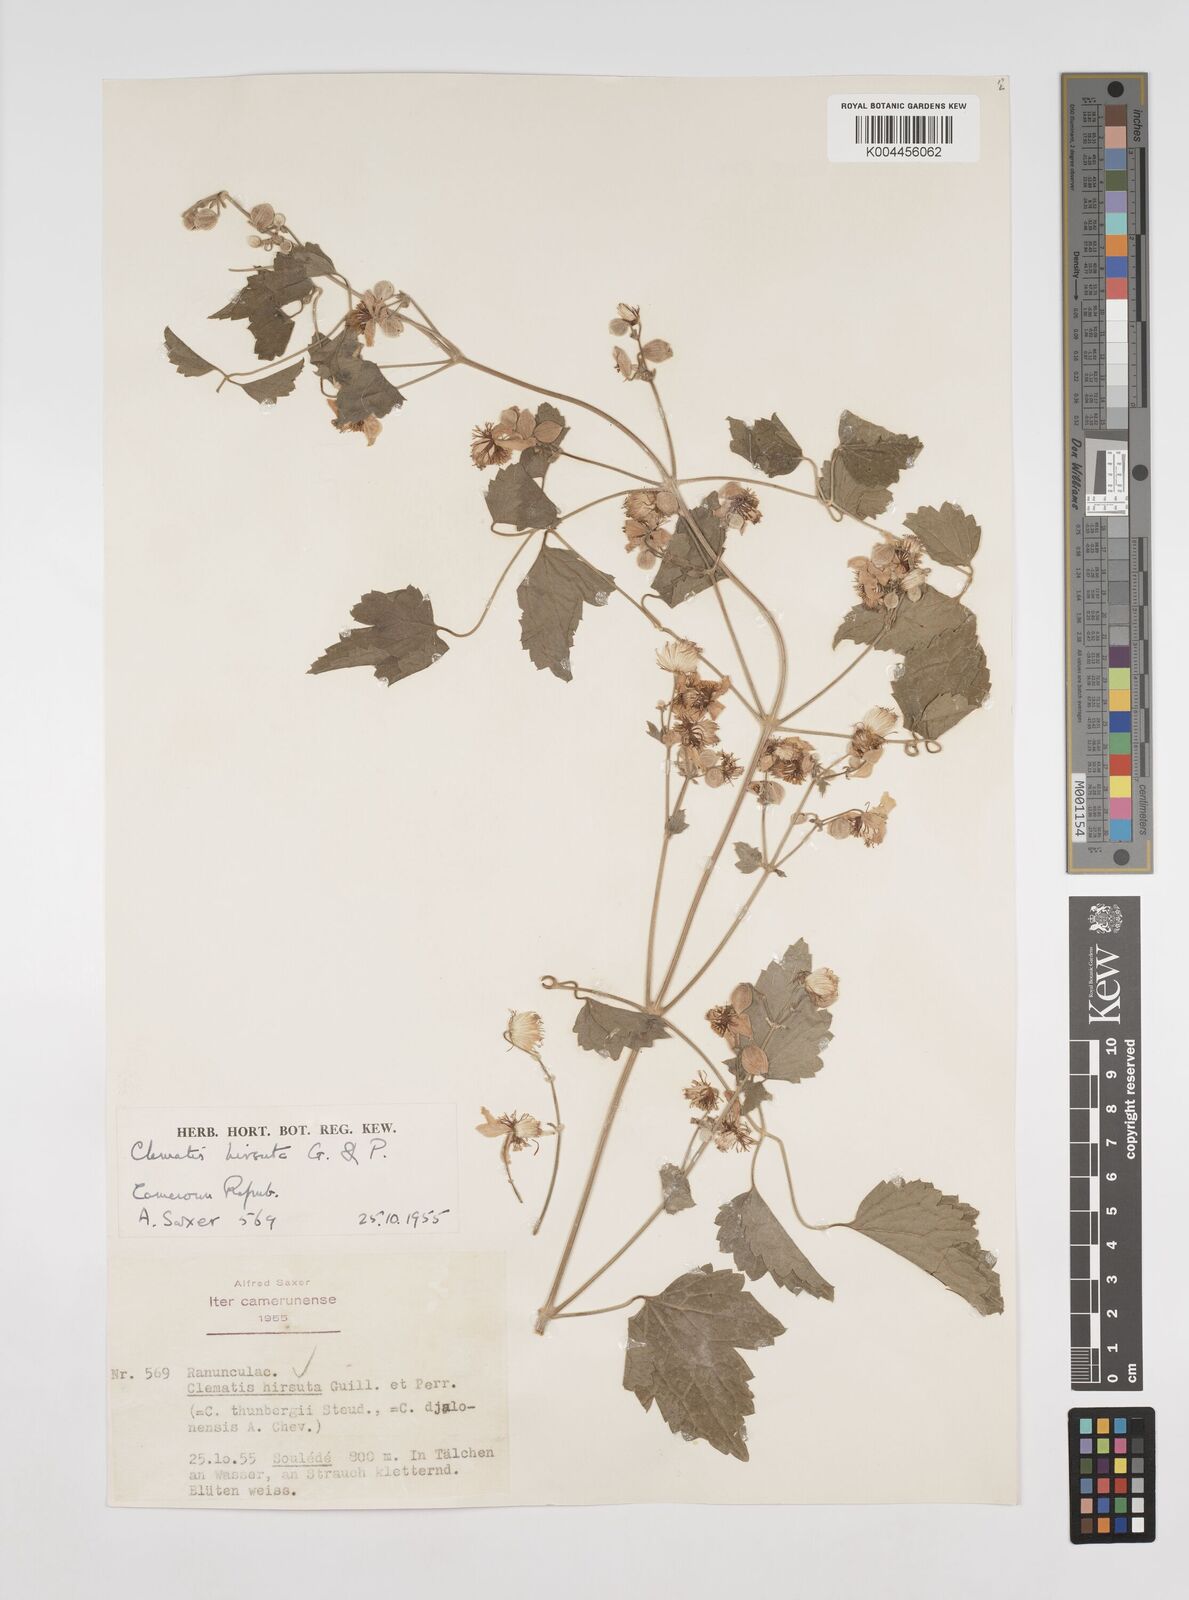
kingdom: Plantae
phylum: Tracheophyta
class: Magnoliopsida
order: Ranunculales
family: Ranunculaceae
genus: Clematis
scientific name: Clematis hirsuta
